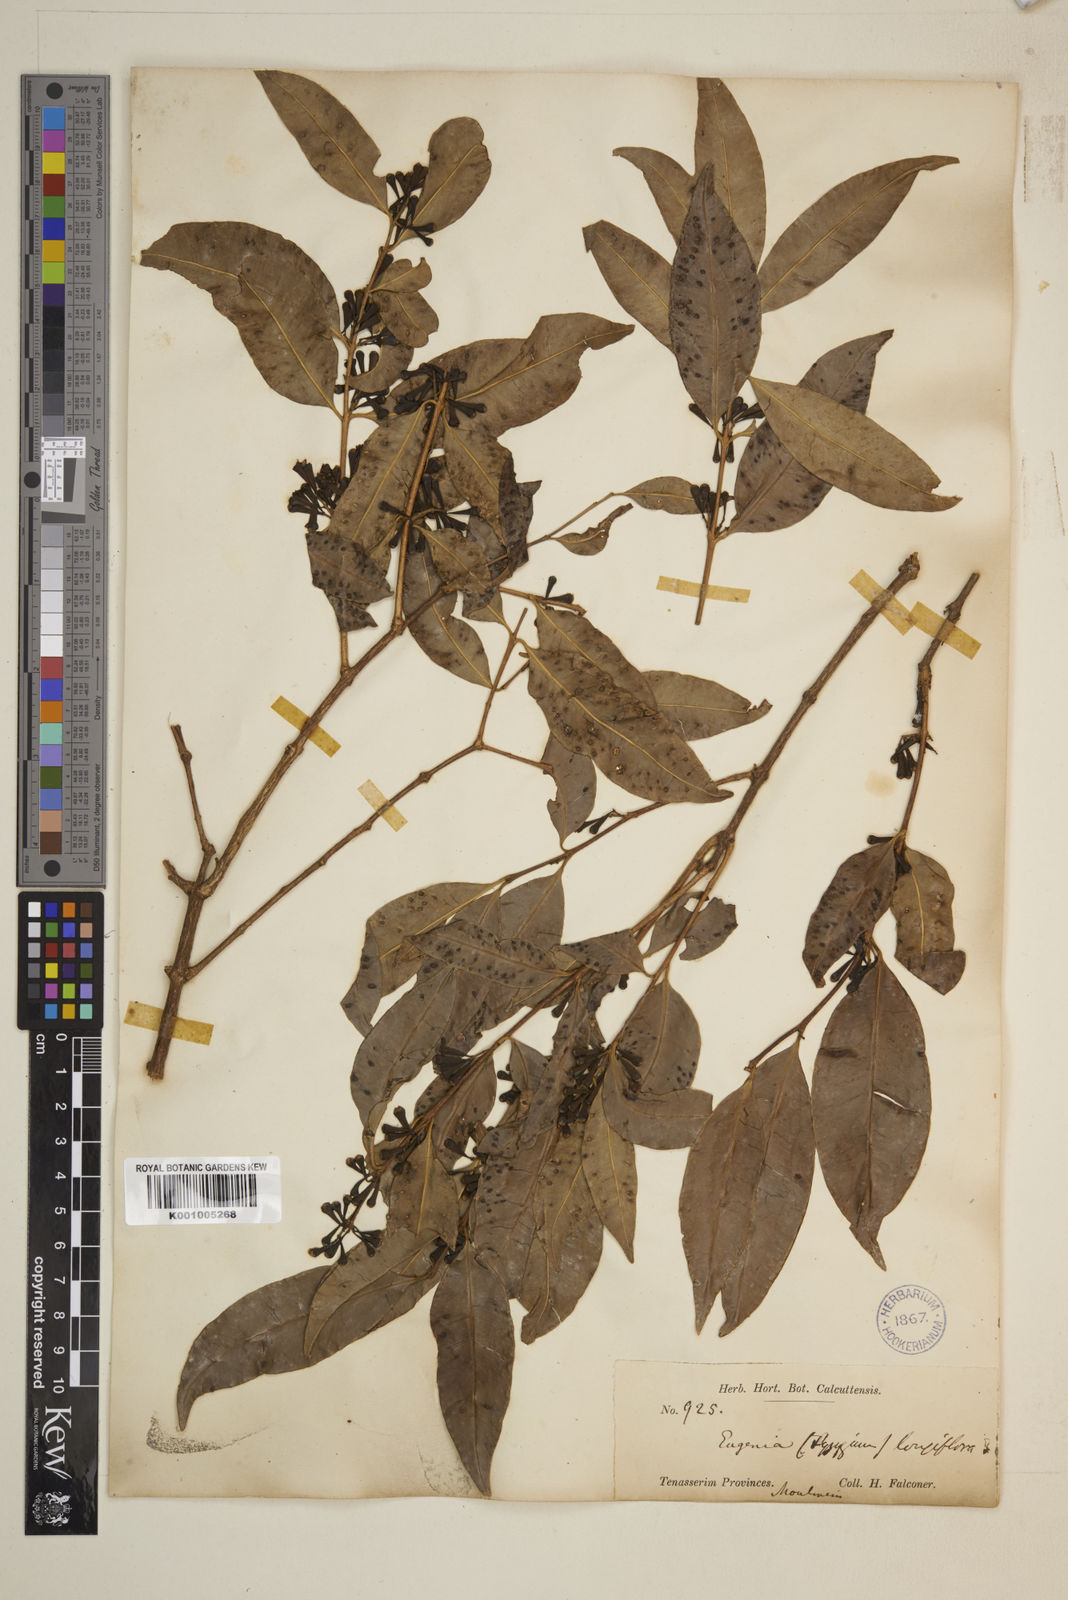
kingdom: Plantae
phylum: Tracheophyta
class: Magnoliopsida
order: Myrtales
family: Myrtaceae
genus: Syzygium
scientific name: Syzygium claviflorum
